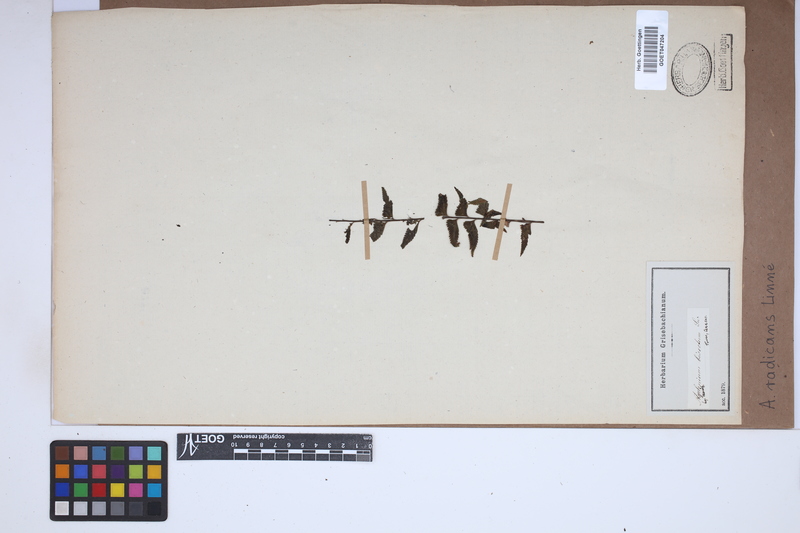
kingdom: Plantae
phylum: Tracheophyta
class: Polypodiopsida
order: Polypodiales
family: Aspleniaceae
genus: Asplenium
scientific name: Asplenium radicans
